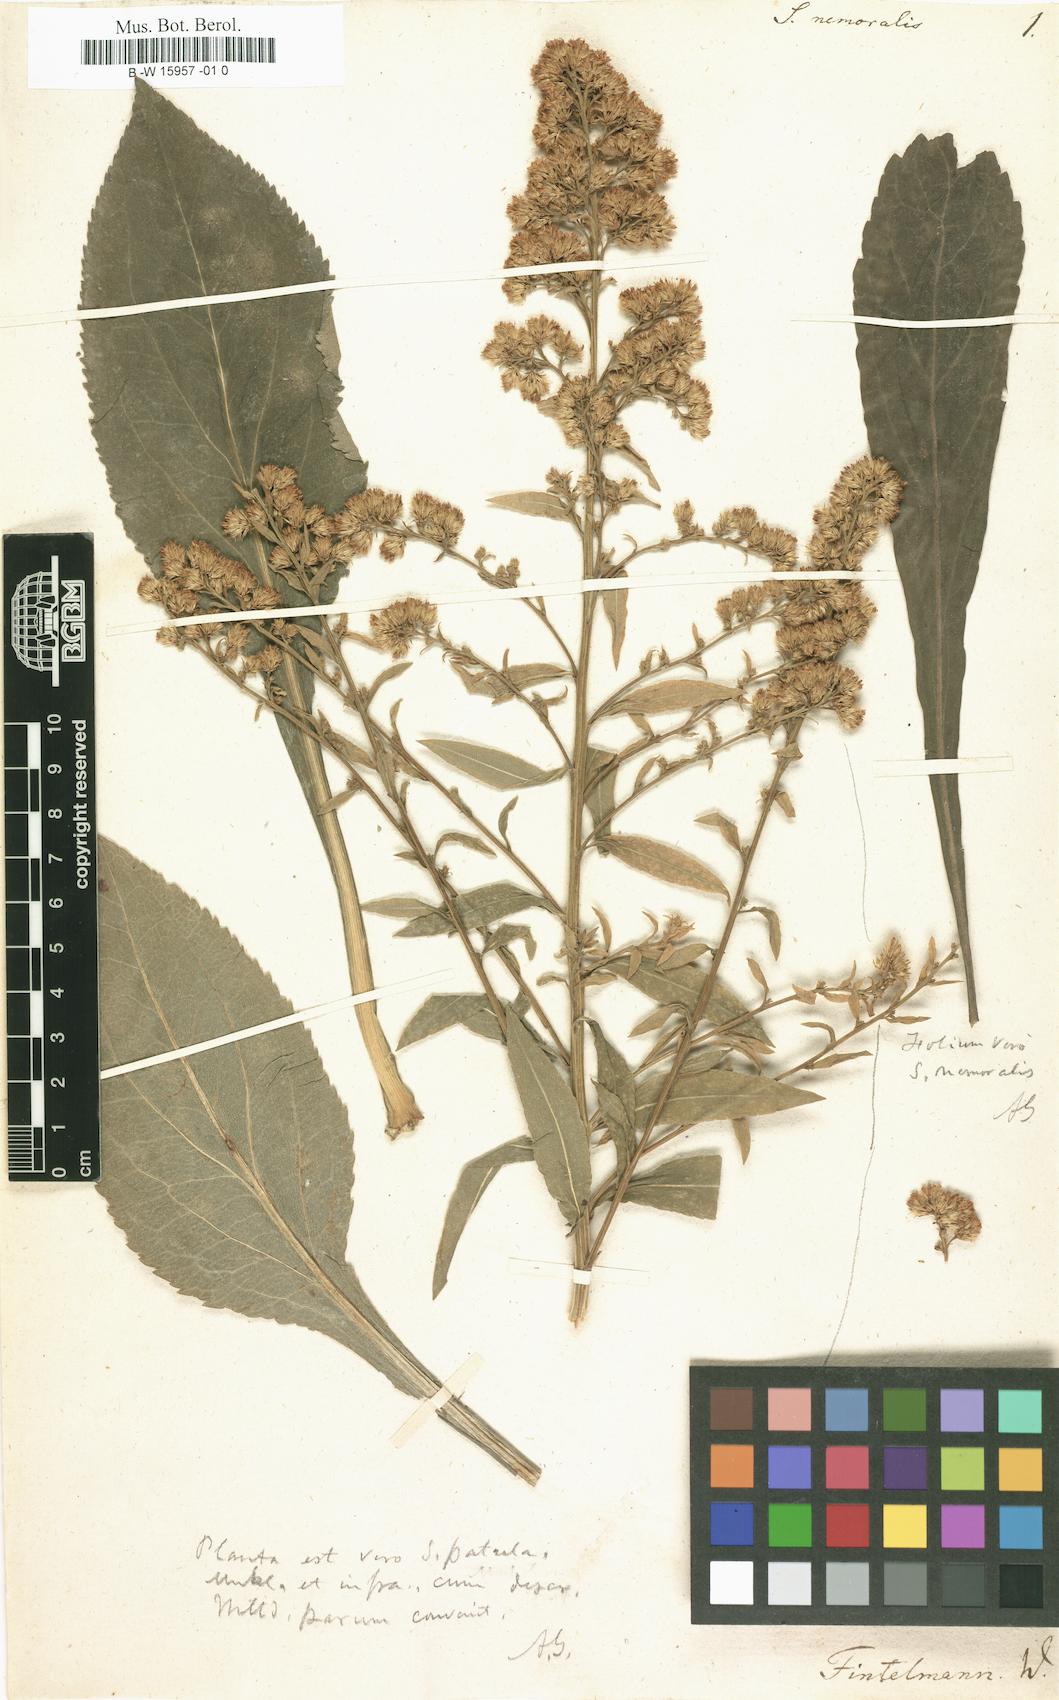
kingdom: Plantae
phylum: Tracheophyta
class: Magnoliopsida
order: Asterales
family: Asteraceae
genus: Solidago
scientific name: Solidago nemoralis
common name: Grey goldenrod
